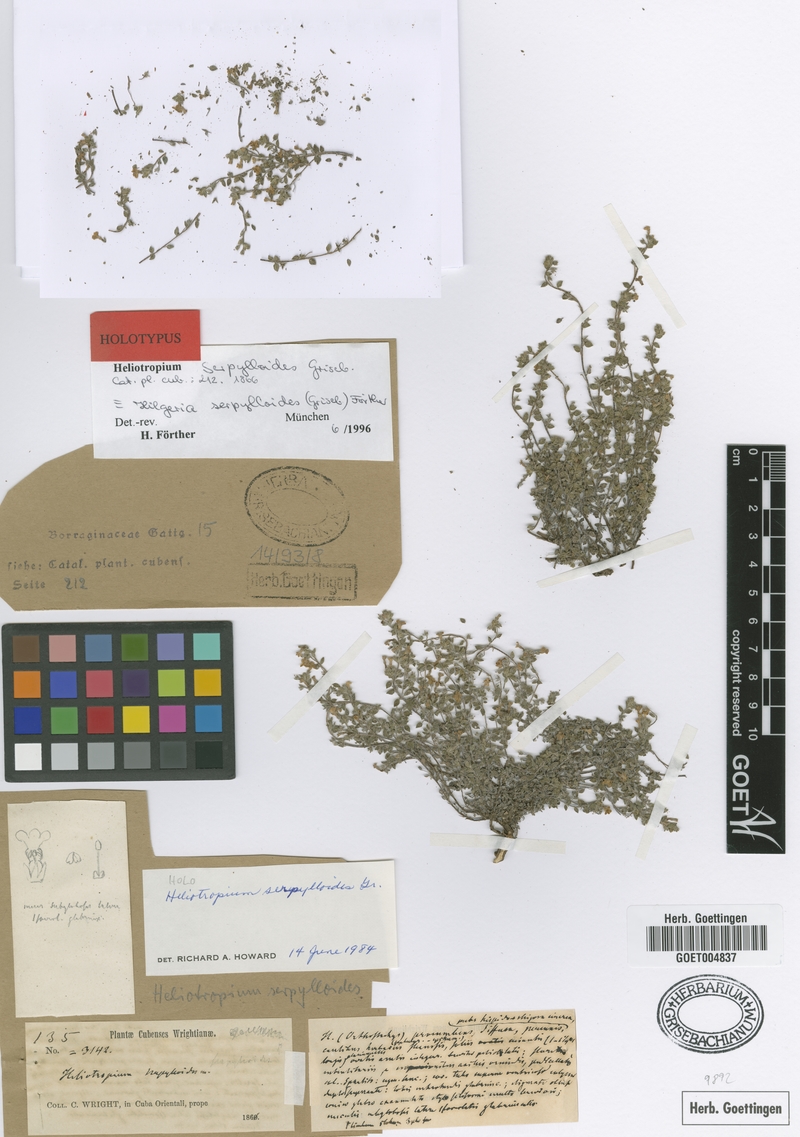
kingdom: Plantae
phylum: Tracheophyta
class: Magnoliopsida
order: Boraginales
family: Heliotropiaceae
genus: Euploca
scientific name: Euploca serpylloides
